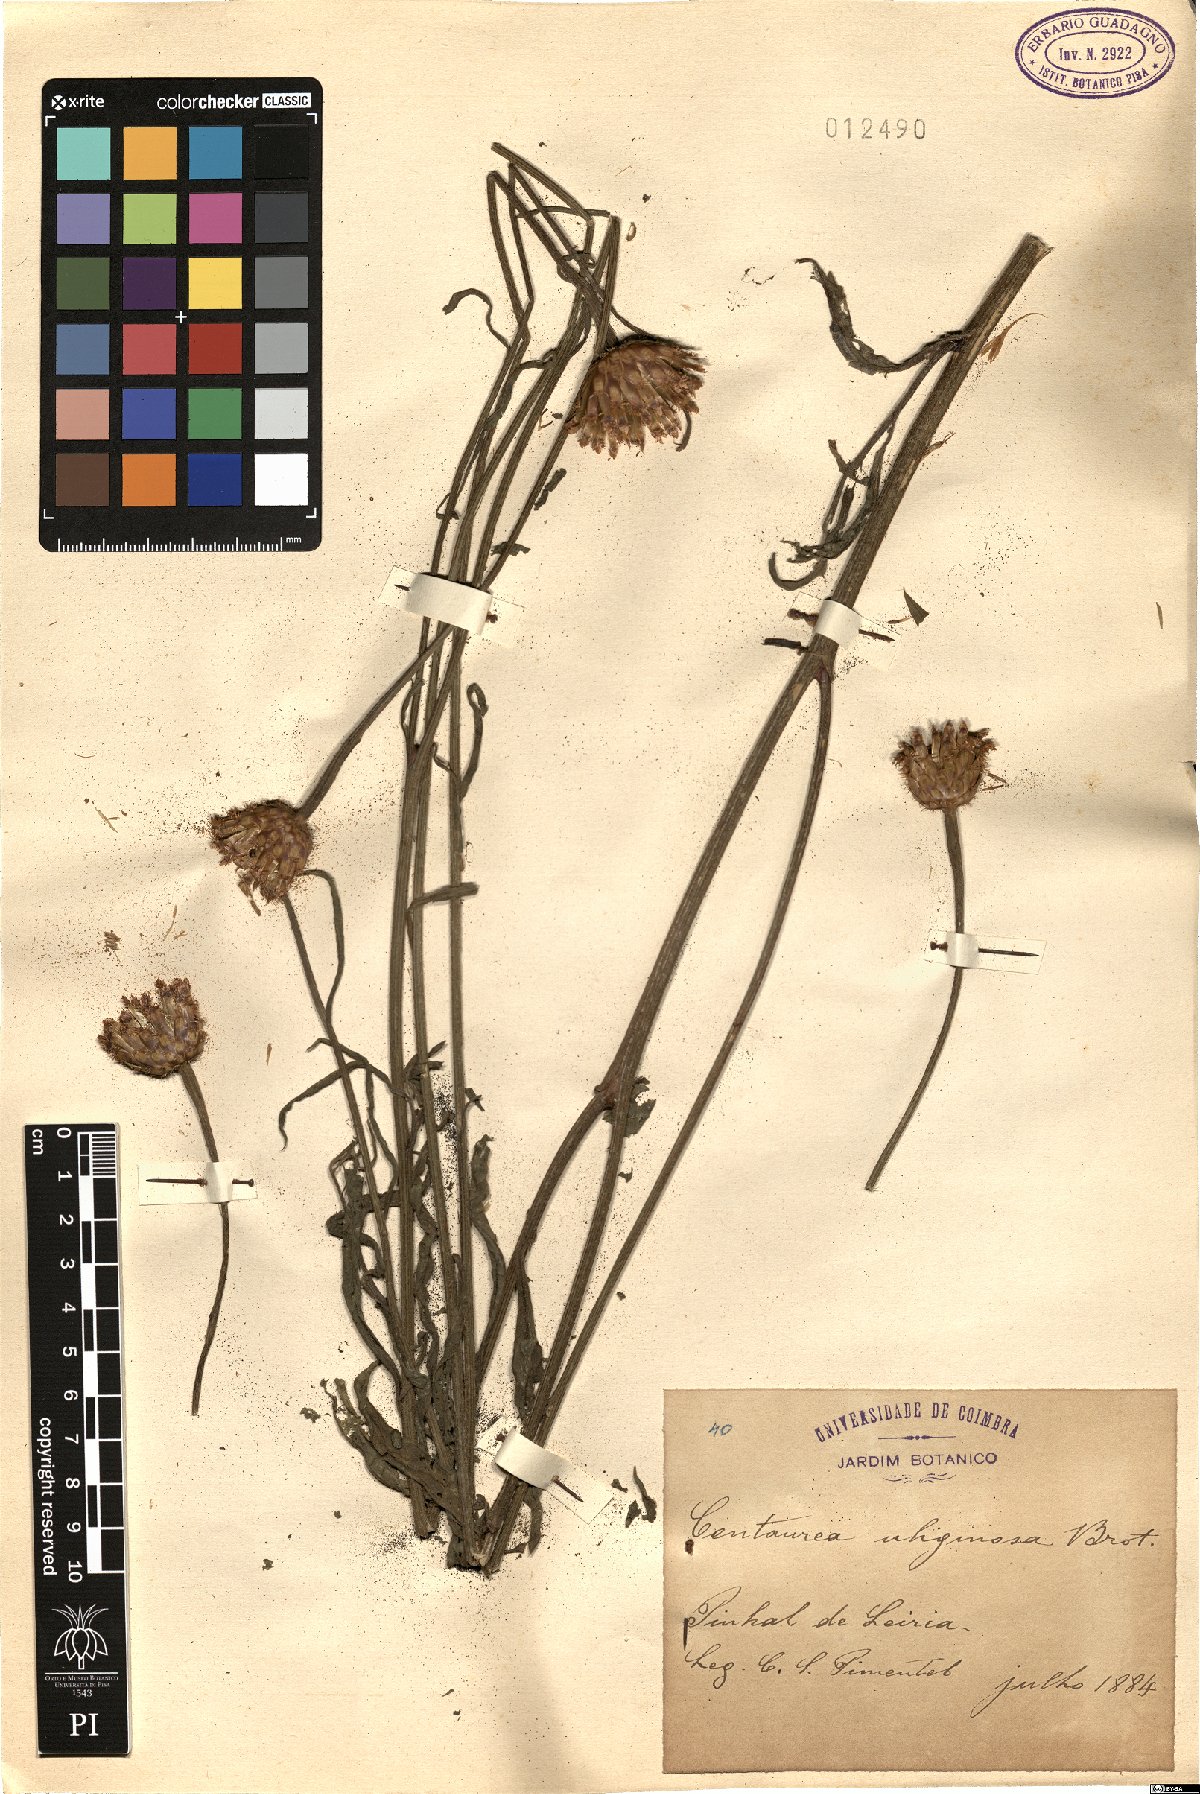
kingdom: Plantae
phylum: Tracheophyta
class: Magnoliopsida
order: Asterales
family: Asteraceae
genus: Cheirolophus
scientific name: Cheirolophus uliginosus
